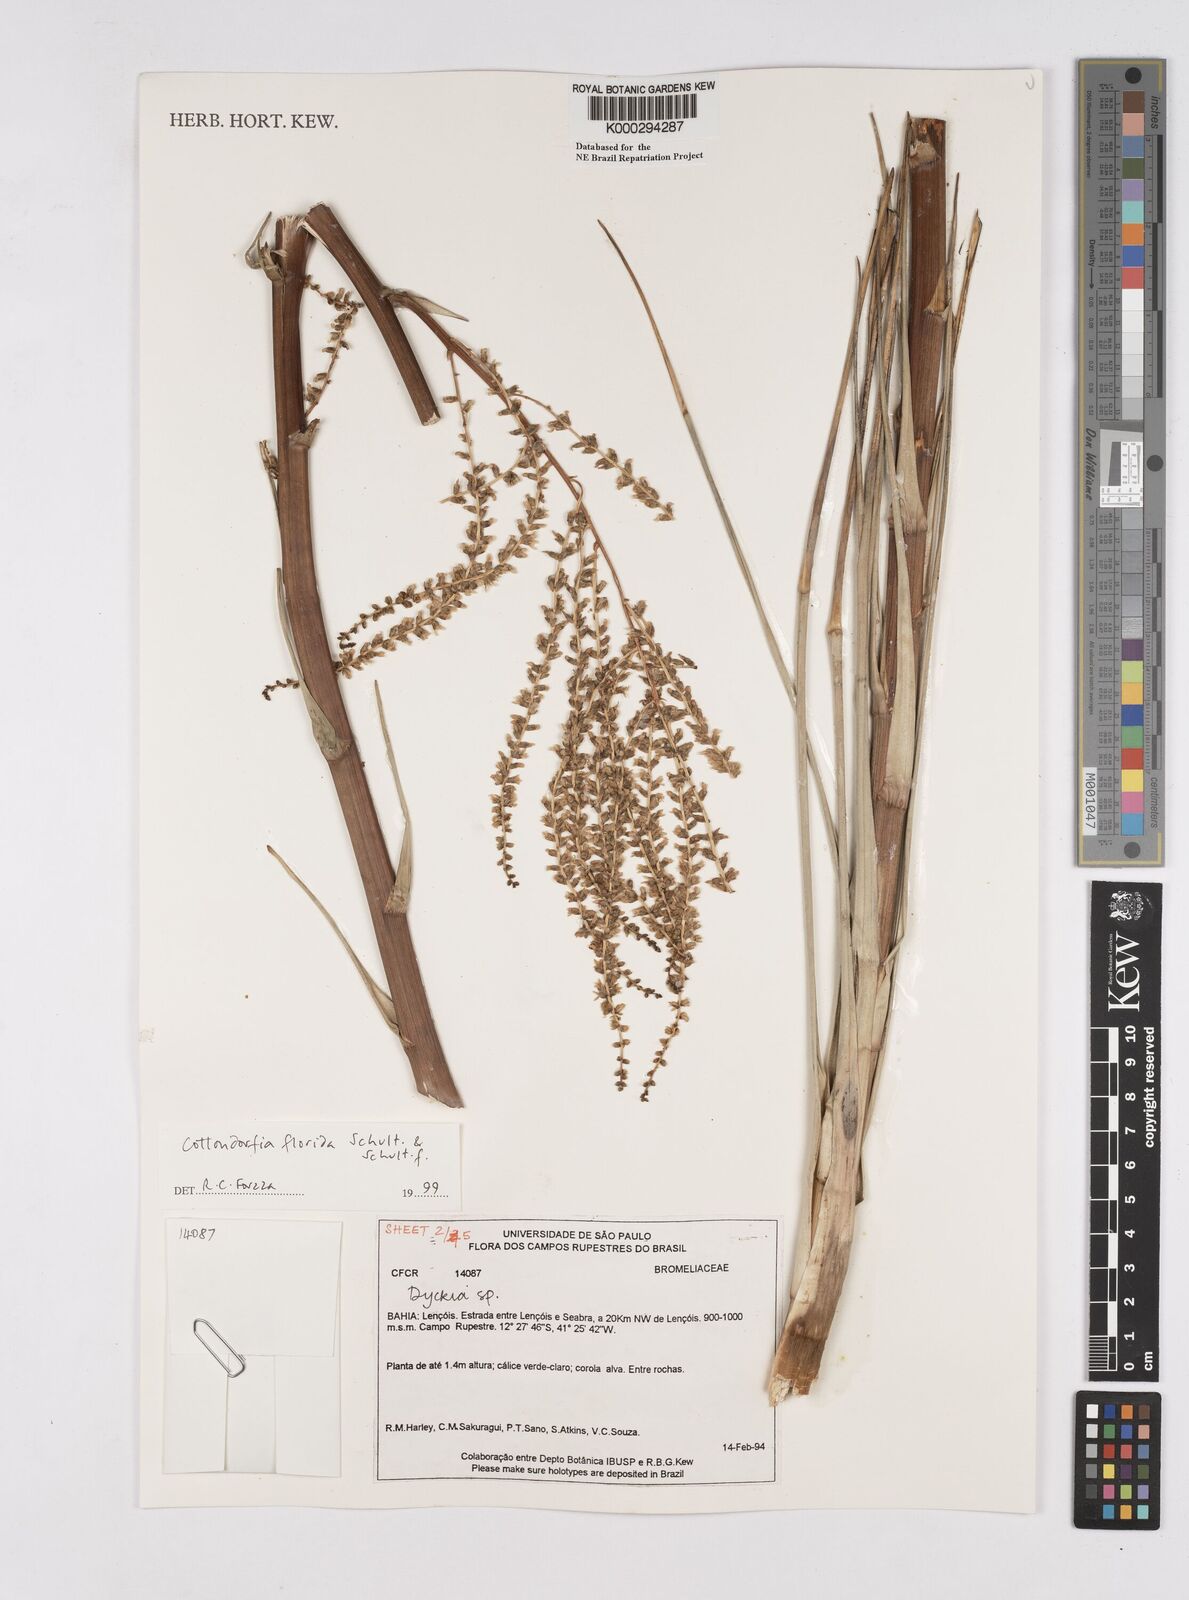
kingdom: Plantae
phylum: Tracheophyta
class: Liliopsida
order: Poales
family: Bromeliaceae
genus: Cottendorfia
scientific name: Cottendorfia florida
